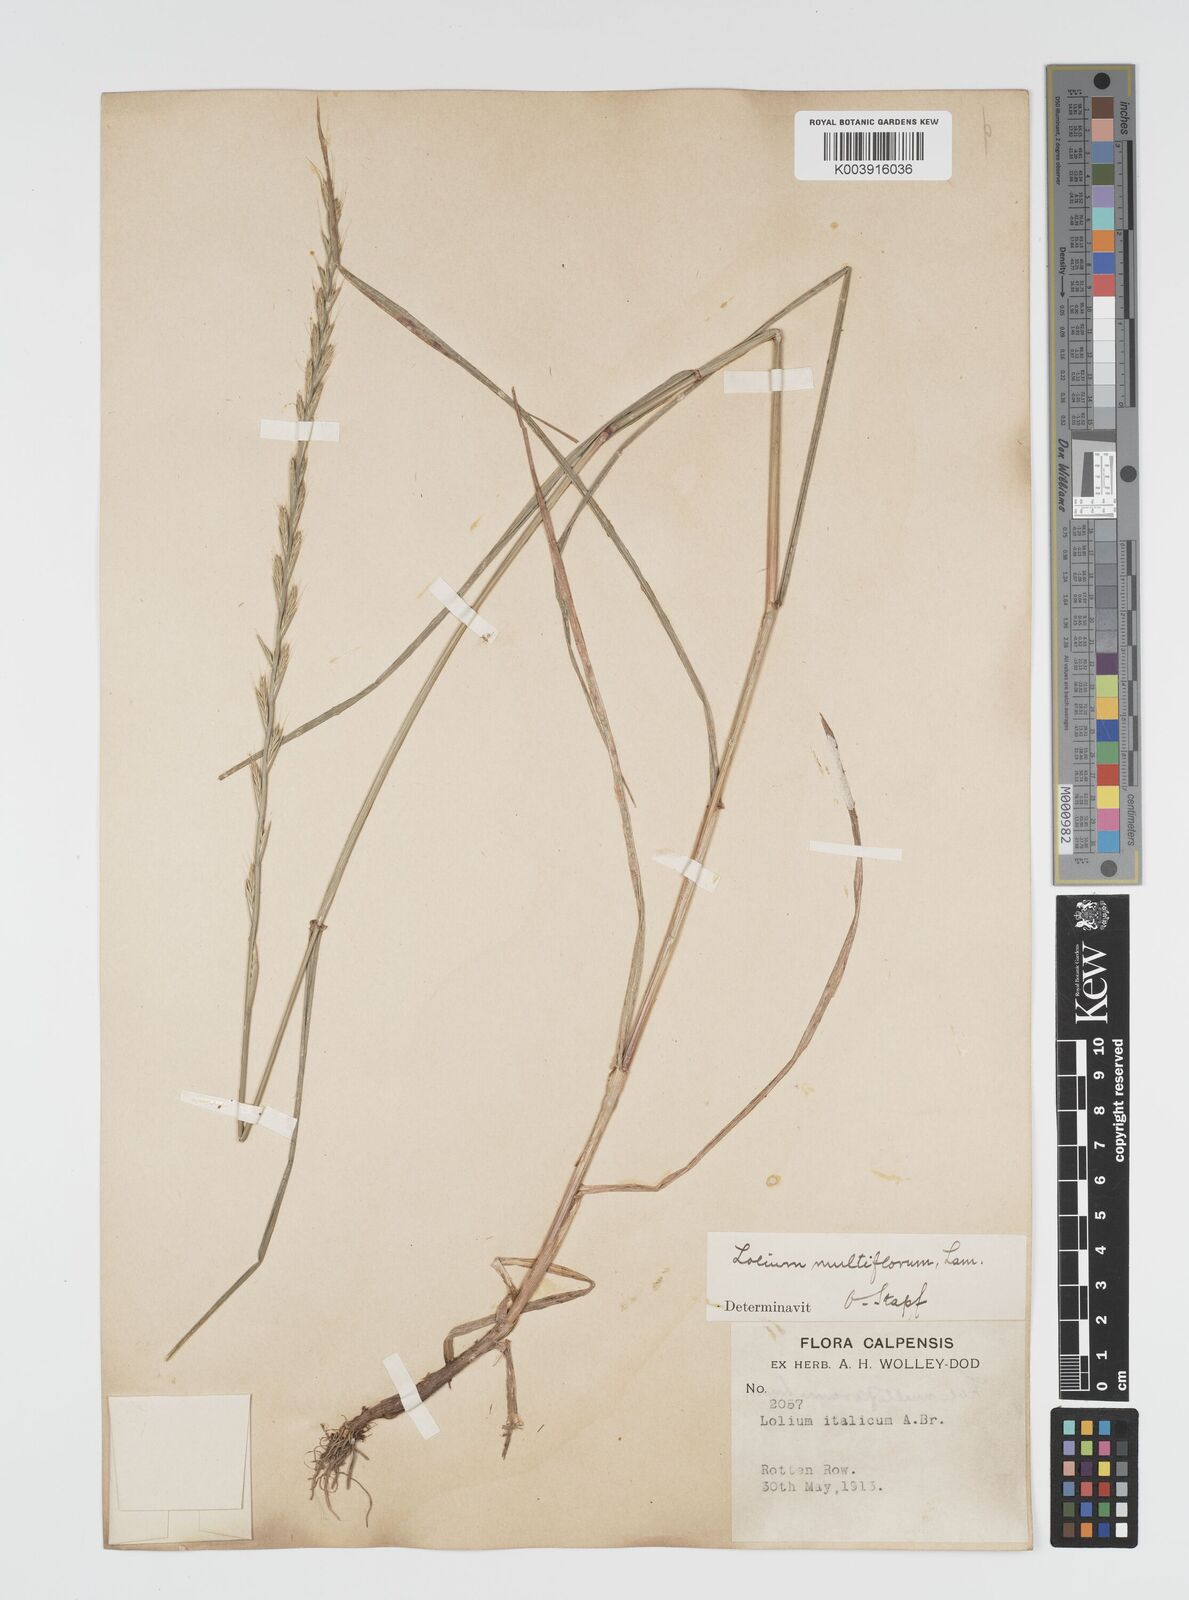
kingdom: Plantae
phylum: Tracheophyta
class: Liliopsida
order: Poales
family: Poaceae
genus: Lolium
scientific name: Lolium multiflorum
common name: Annual ryegrass
